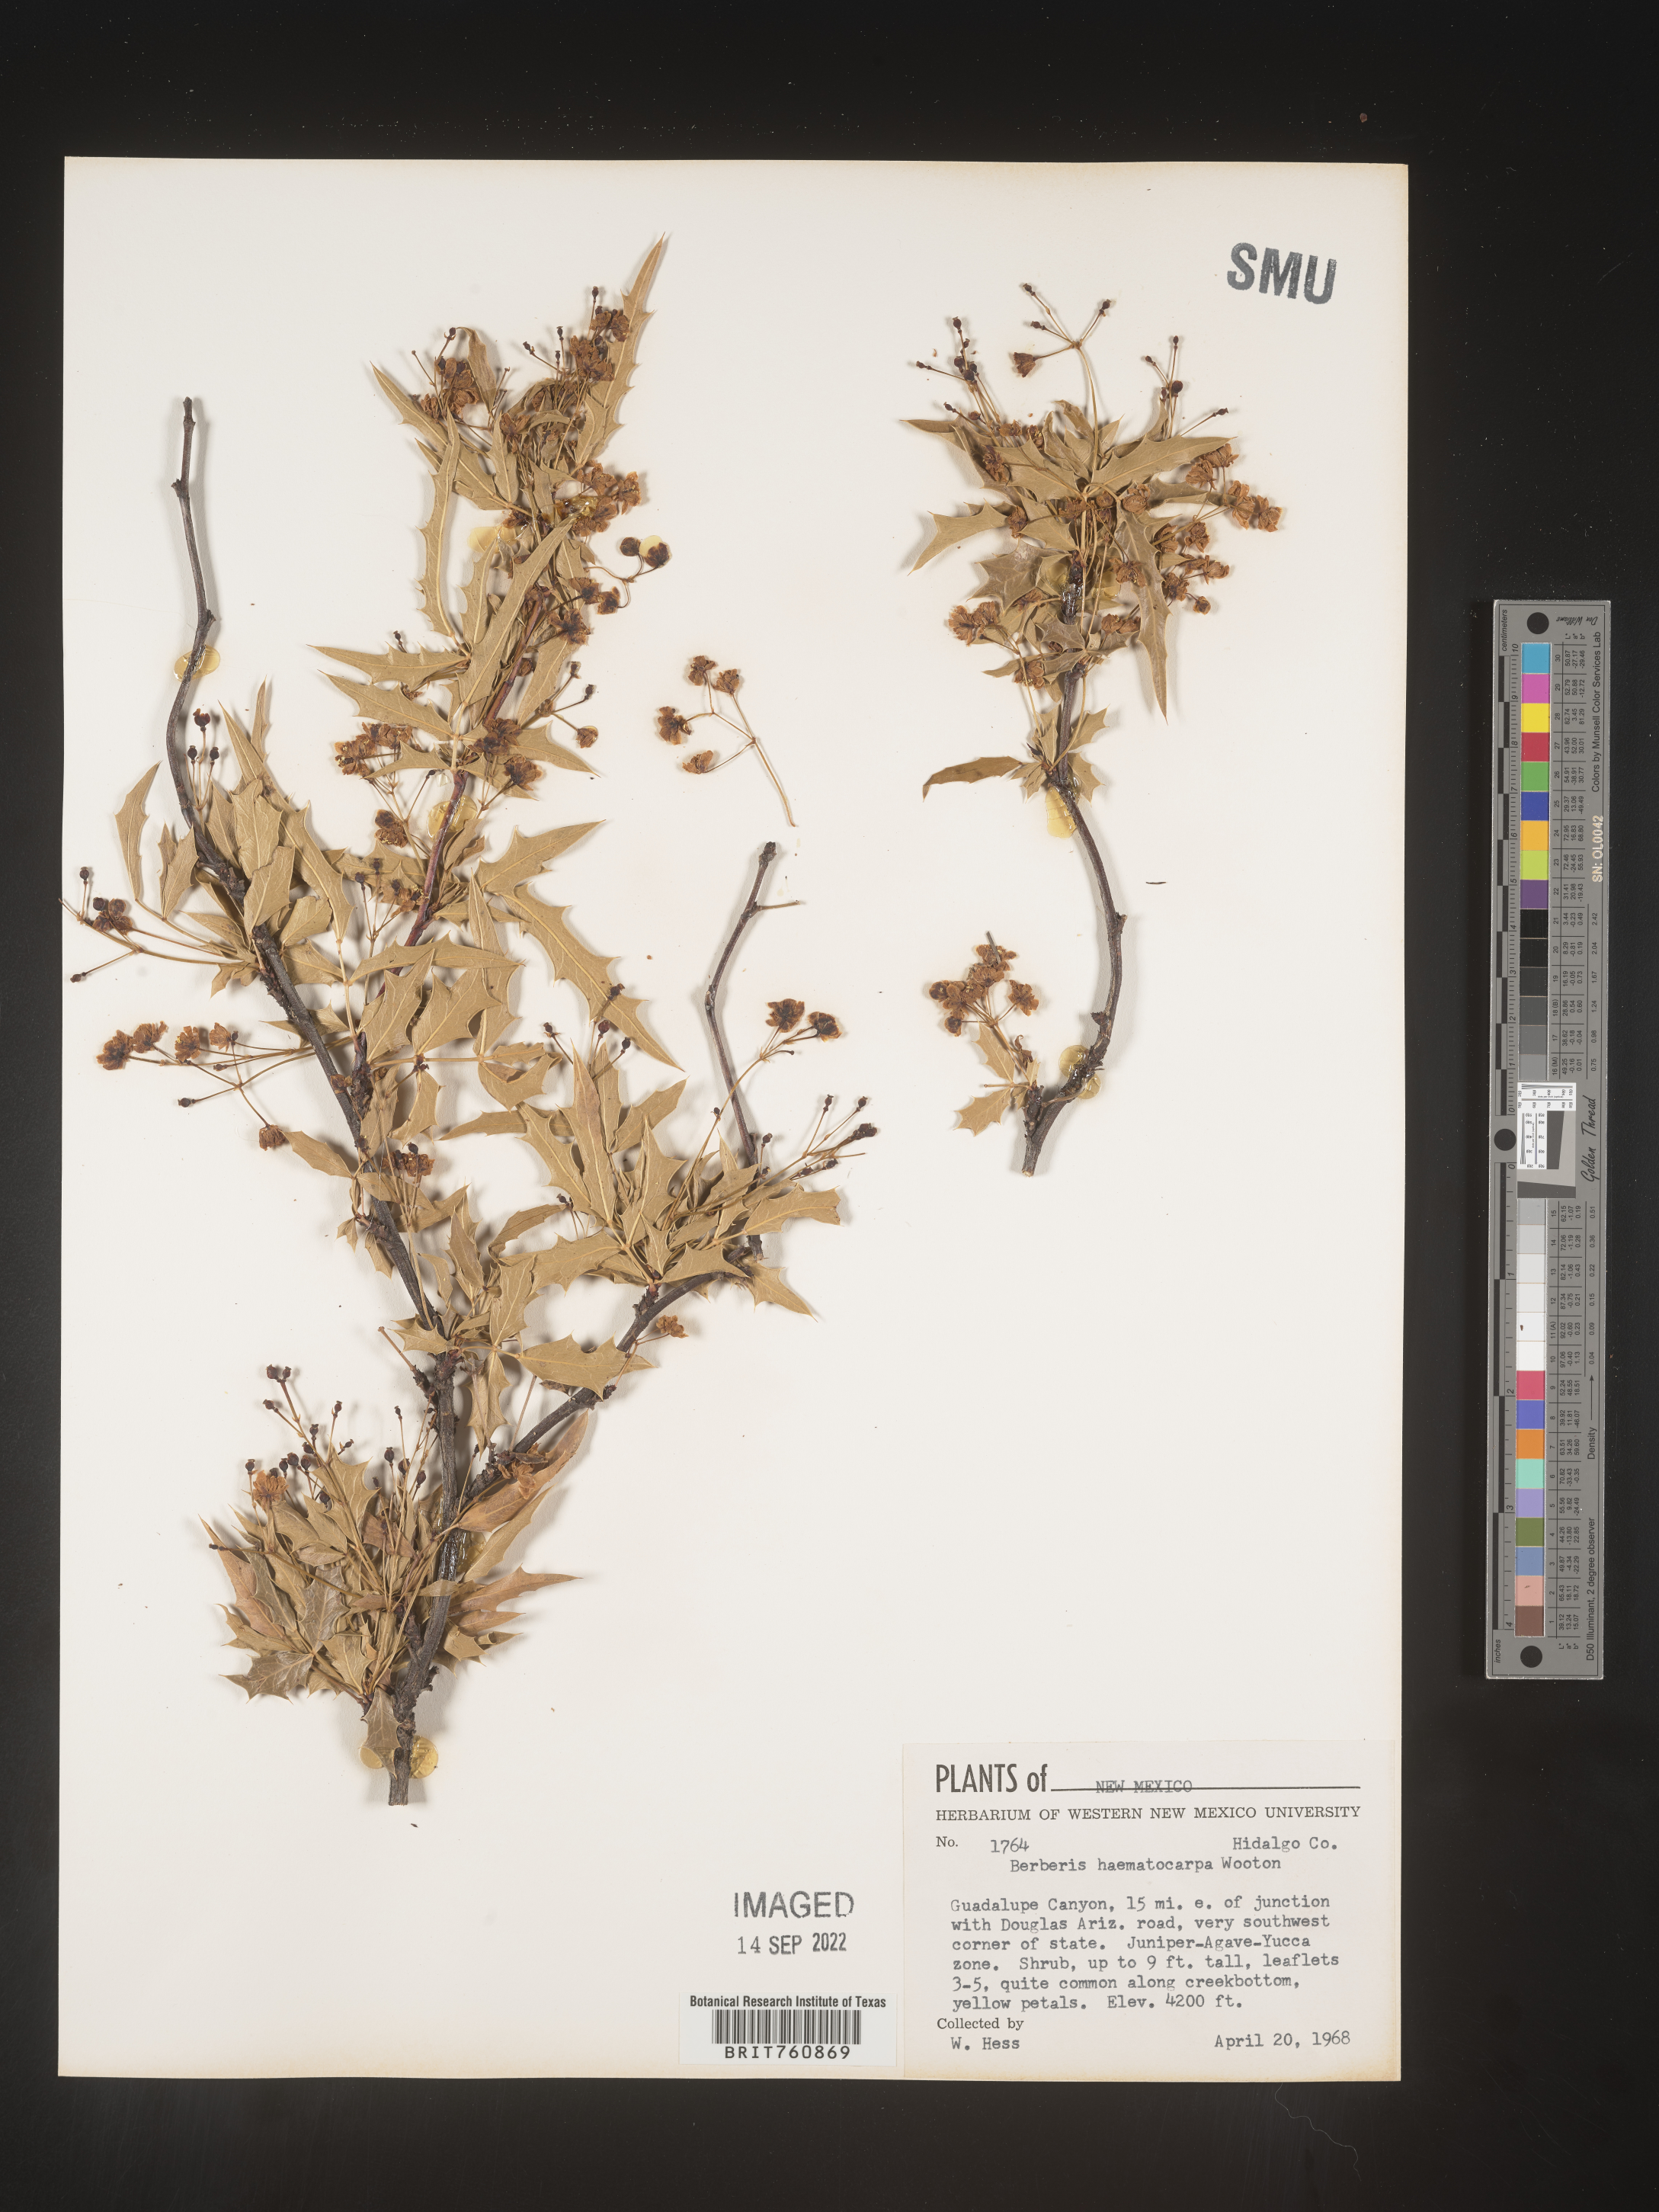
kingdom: Plantae
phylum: Tracheophyta
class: Magnoliopsida
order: Ranunculales
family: Berberidaceae
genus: Mahonia
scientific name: Mahonia
